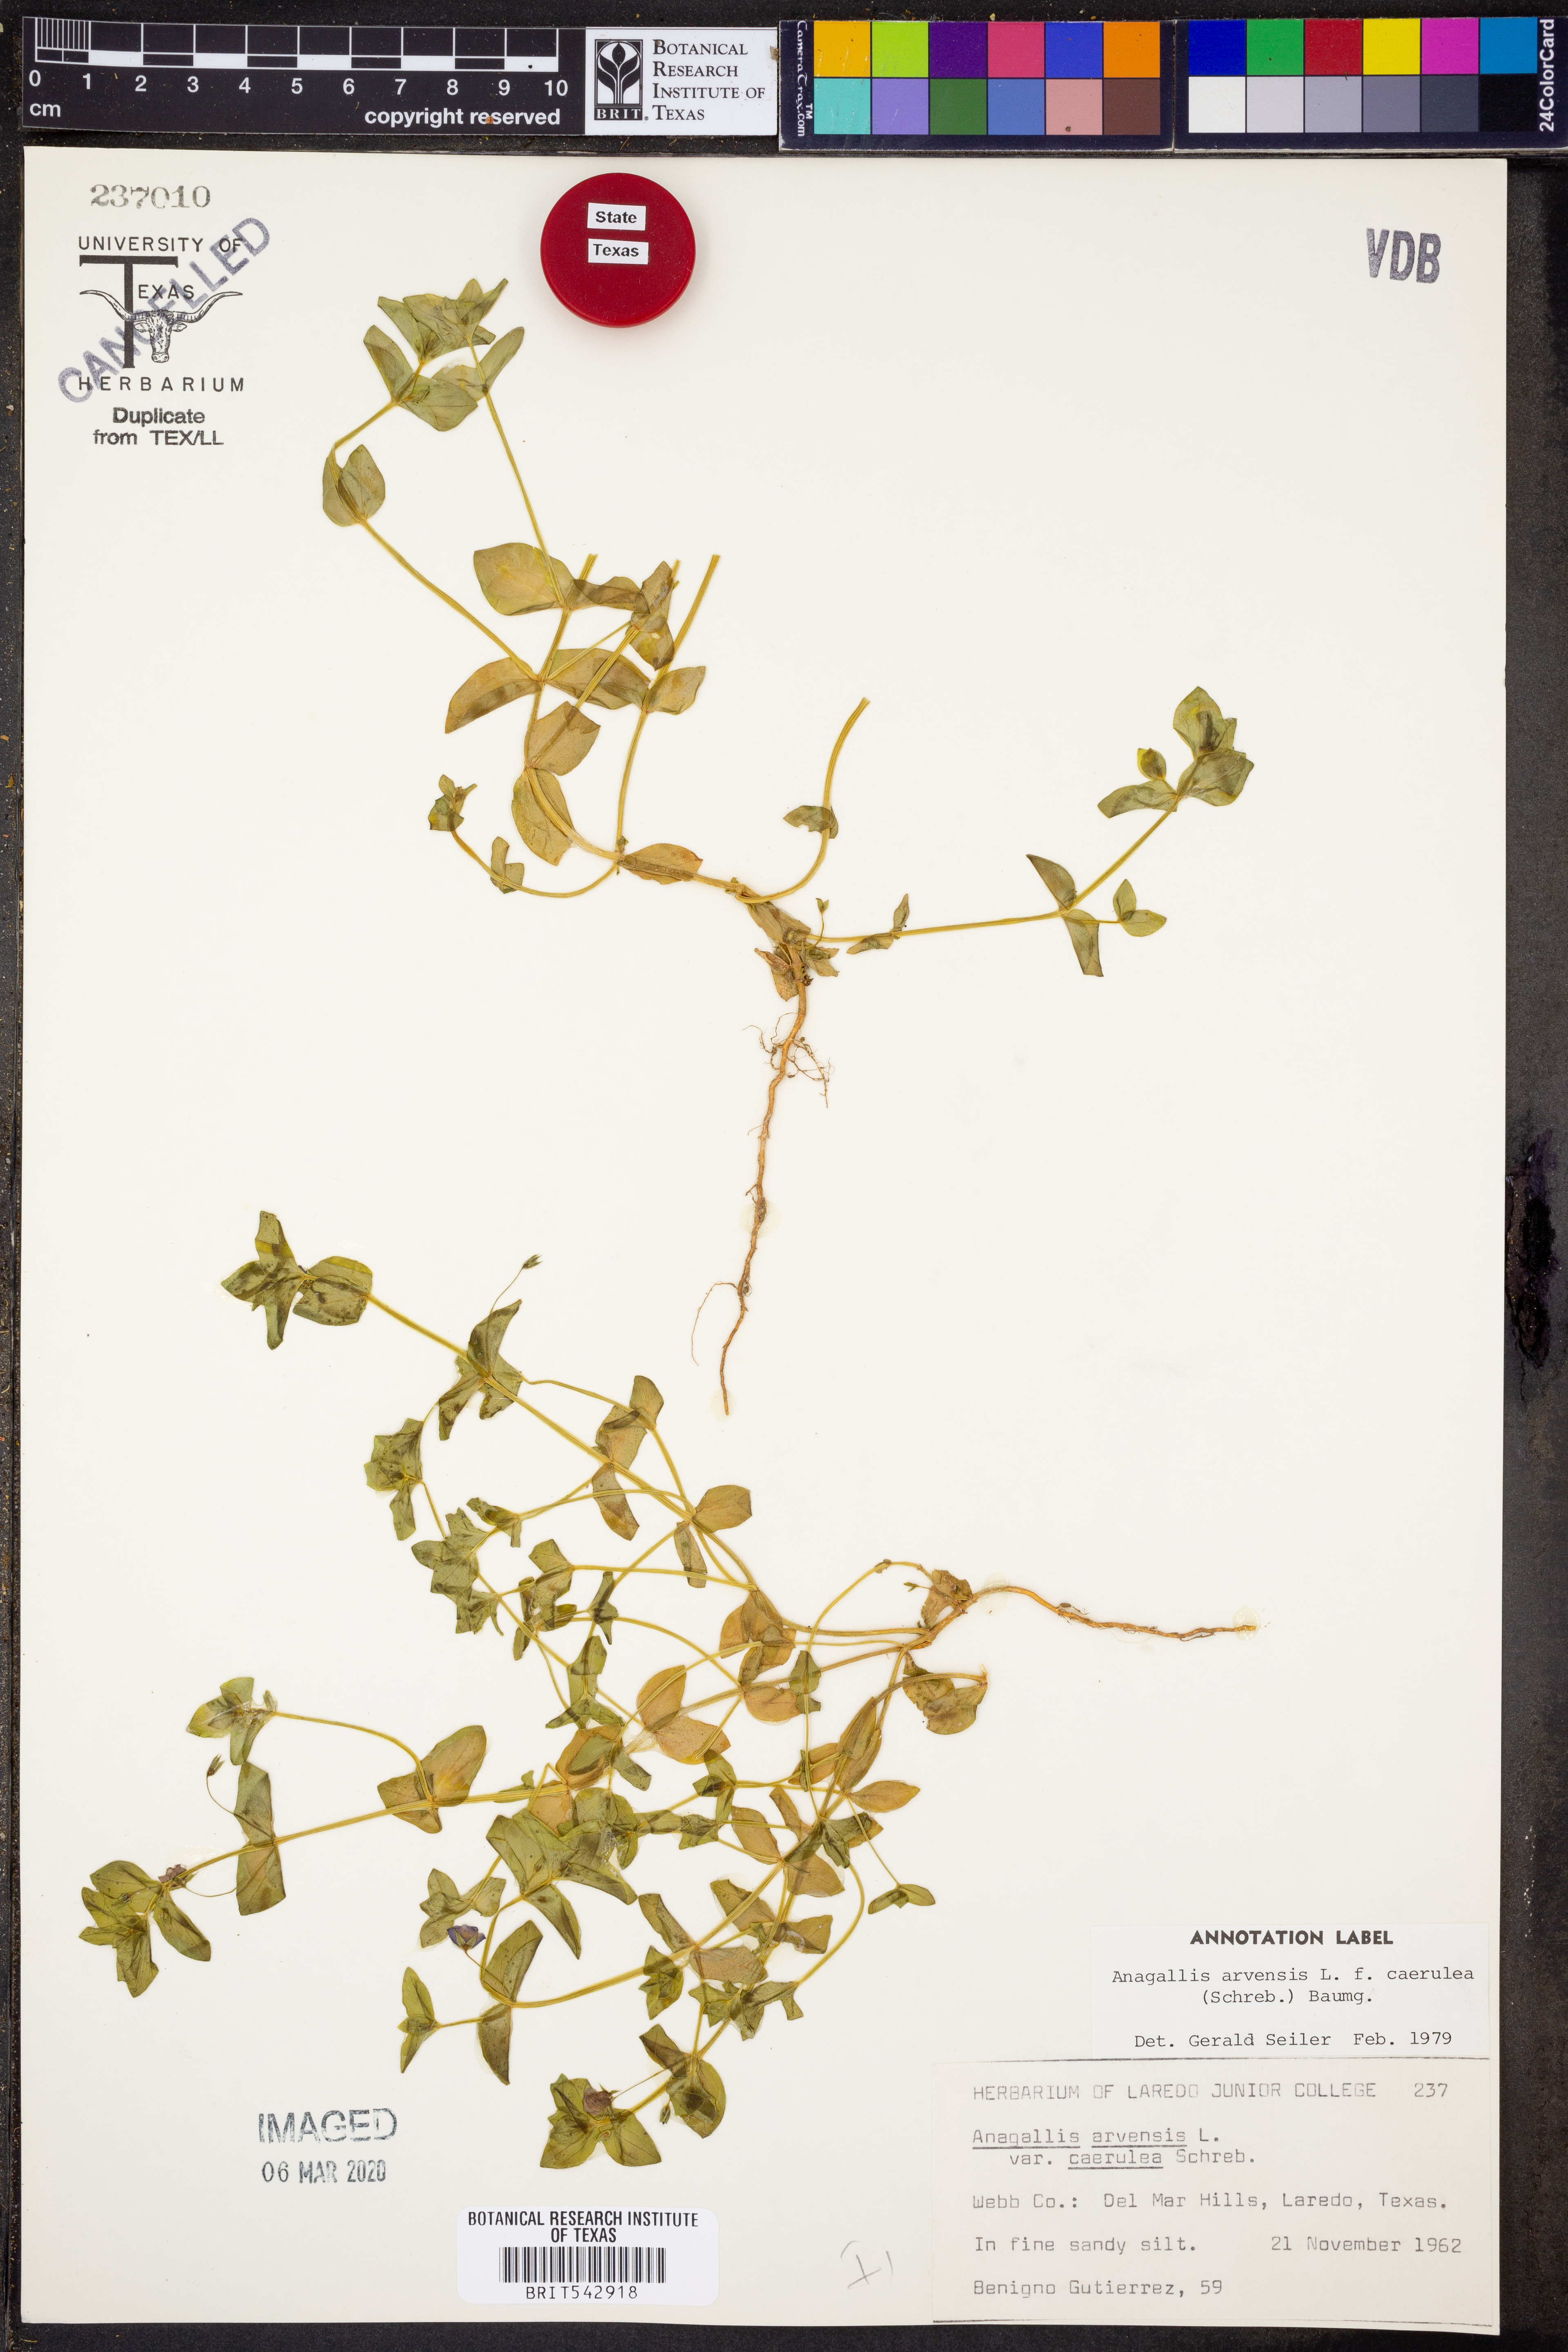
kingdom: Plantae
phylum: Tracheophyta
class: Magnoliopsida
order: Ericales
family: Primulaceae
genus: Lysimachia
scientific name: Lysimachia arvensis
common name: Scarlet pimpernel
